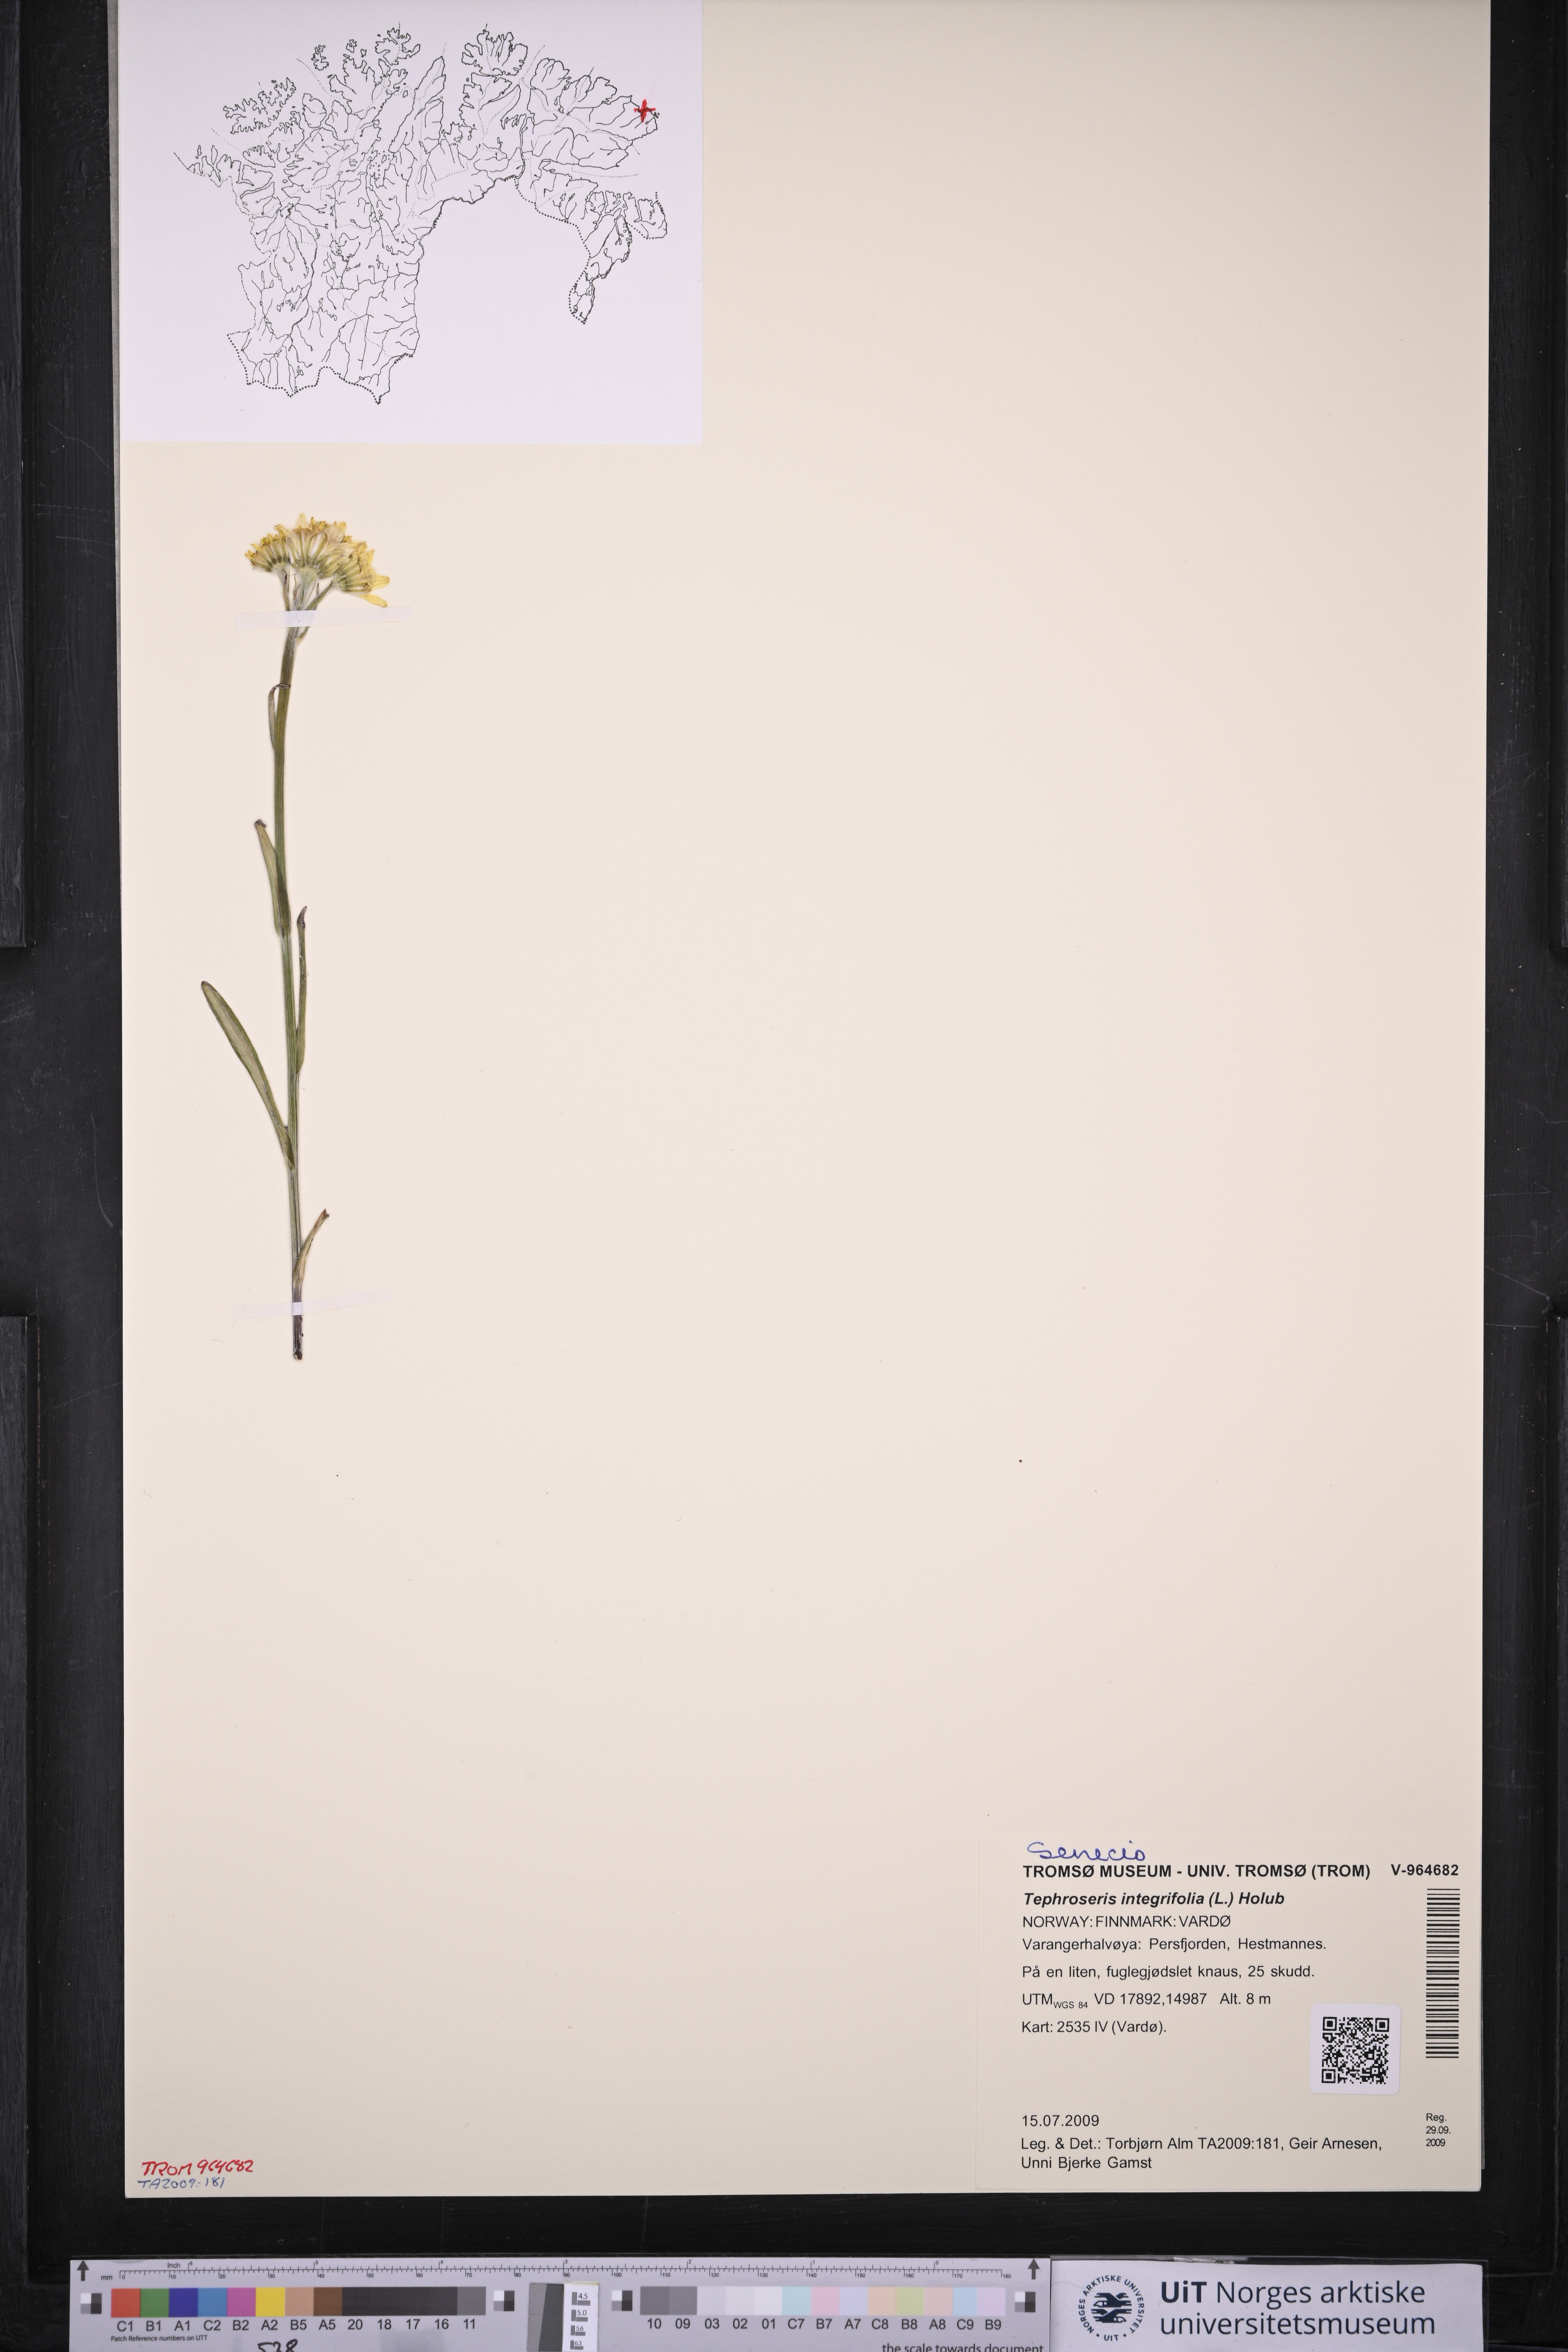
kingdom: Plantae
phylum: Tracheophyta
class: Magnoliopsida
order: Asterales
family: Asteraceae
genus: Tephroseris
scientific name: Tephroseris integrifolia
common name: Field fleawort
